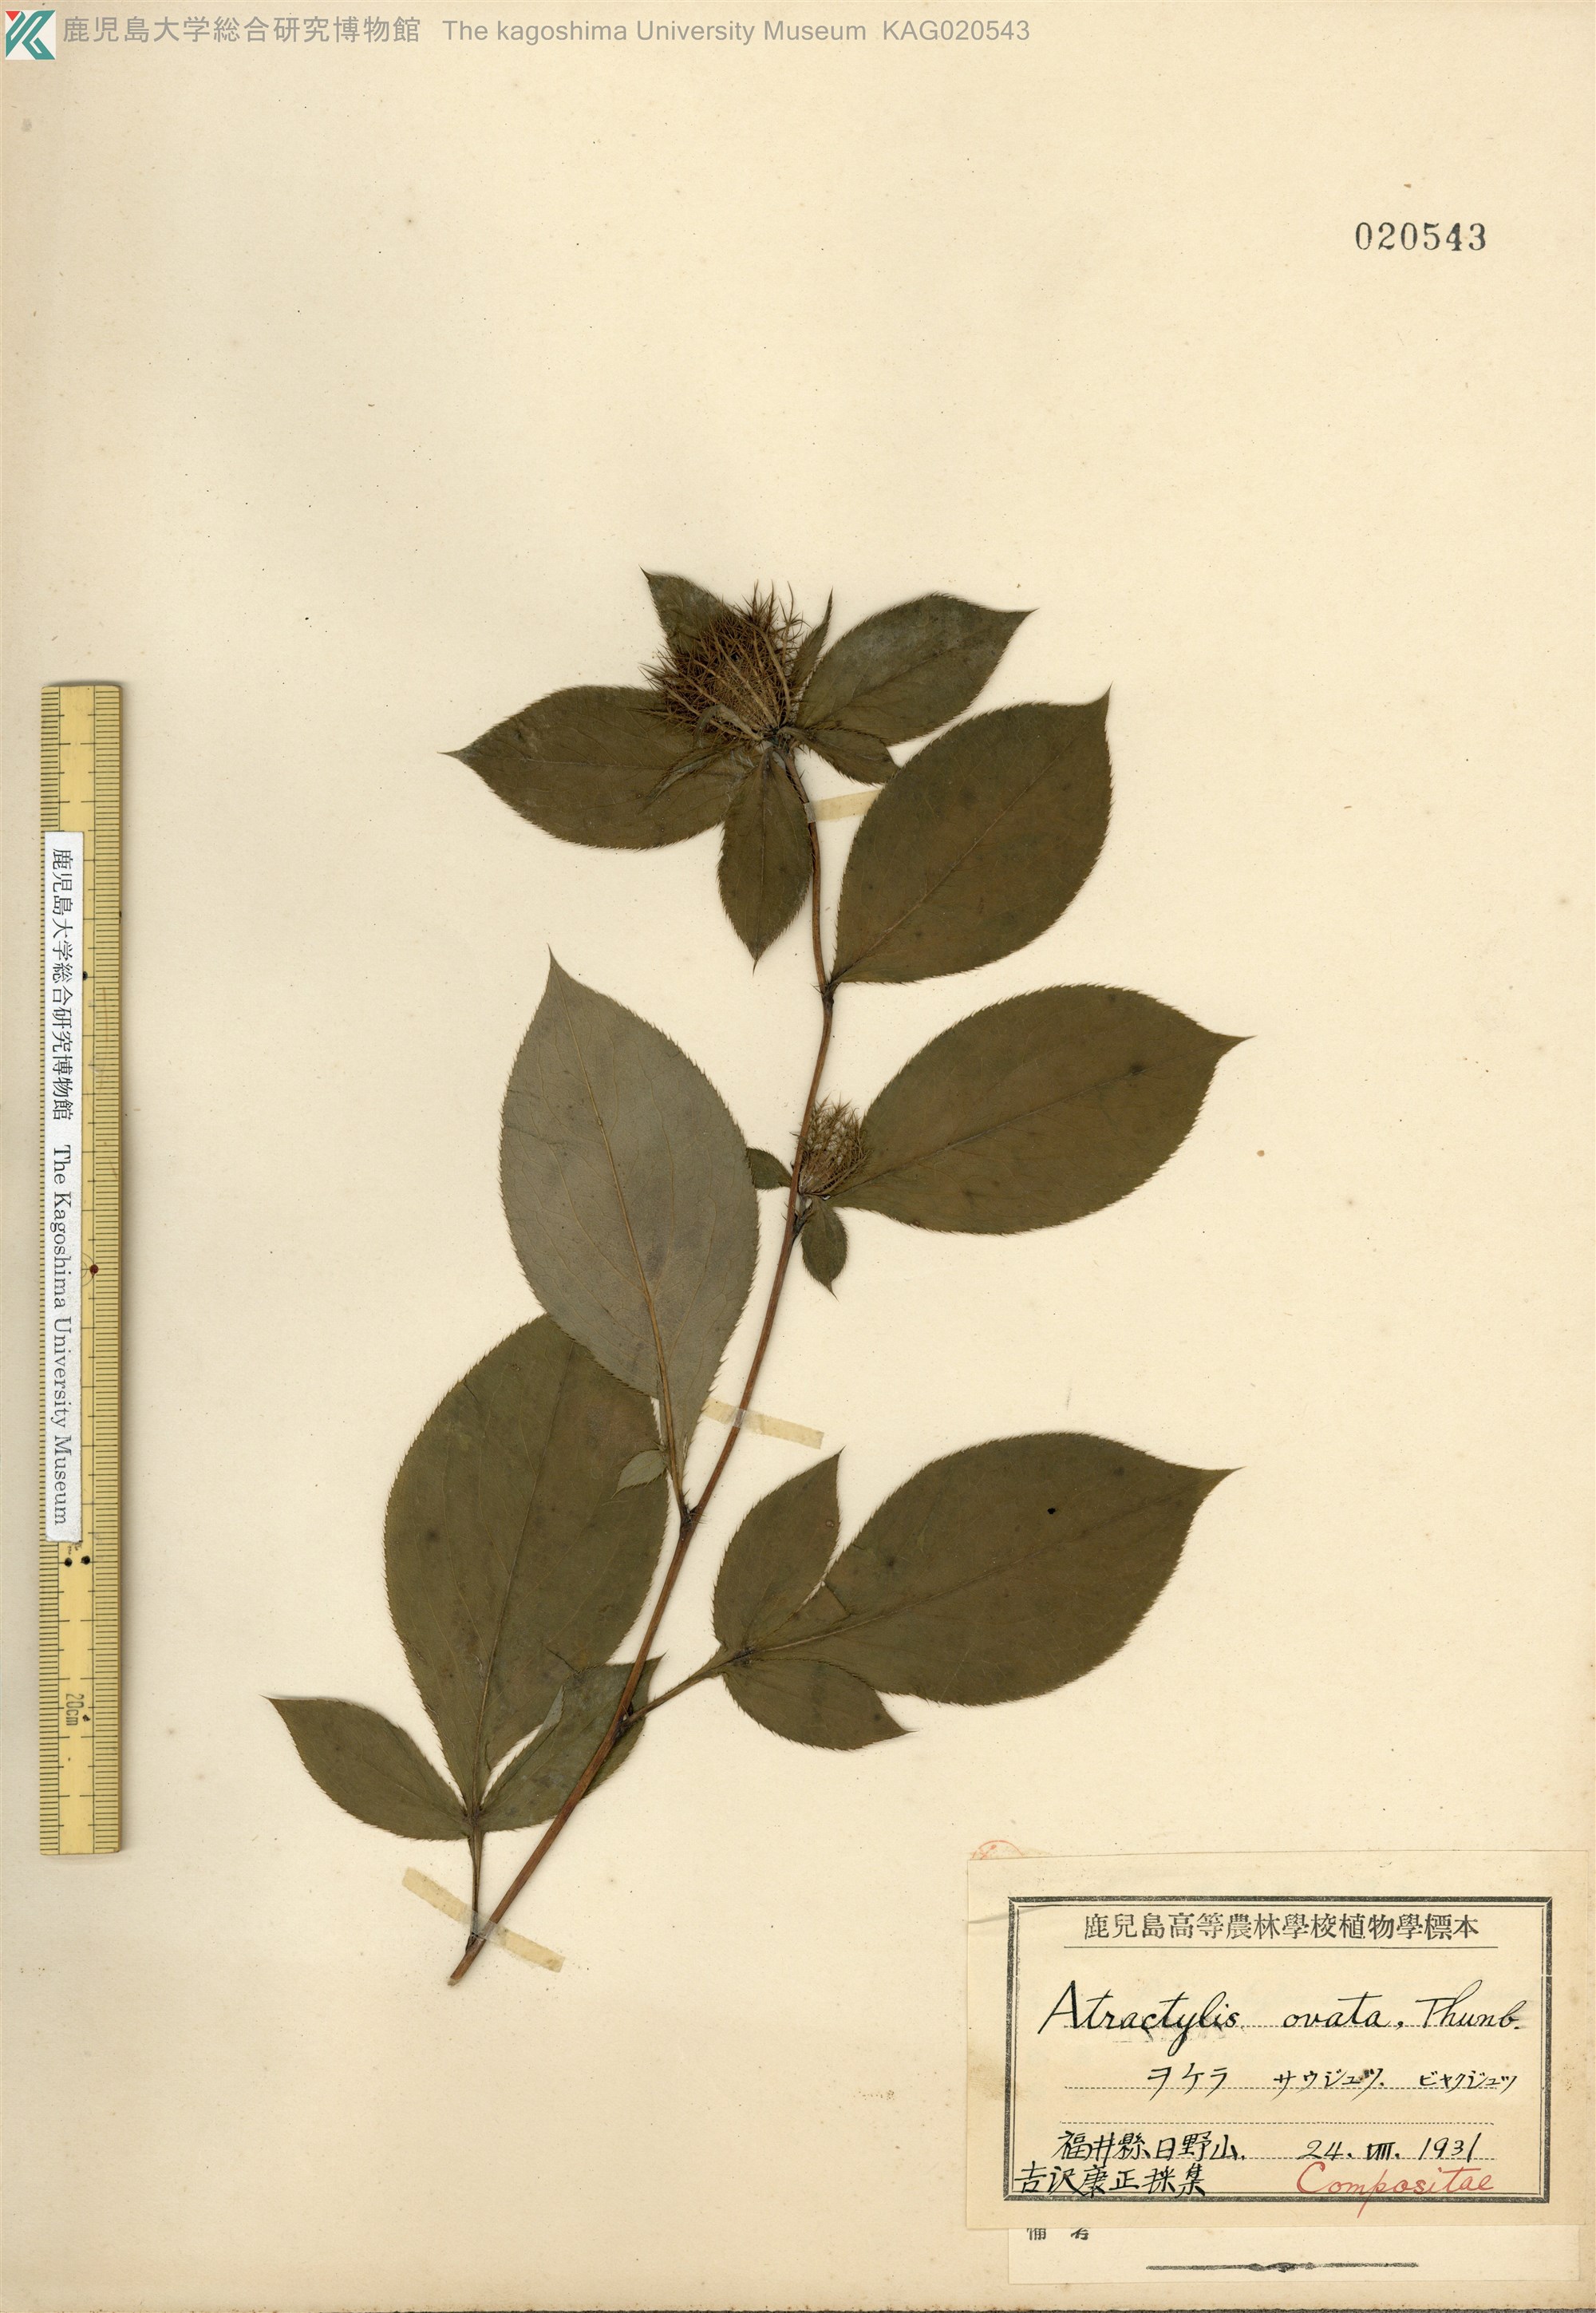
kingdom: Plantae
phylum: Tracheophyta
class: Magnoliopsida
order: Asterales
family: Asteraceae
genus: Atractylodes
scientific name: Atractylodes lancea
